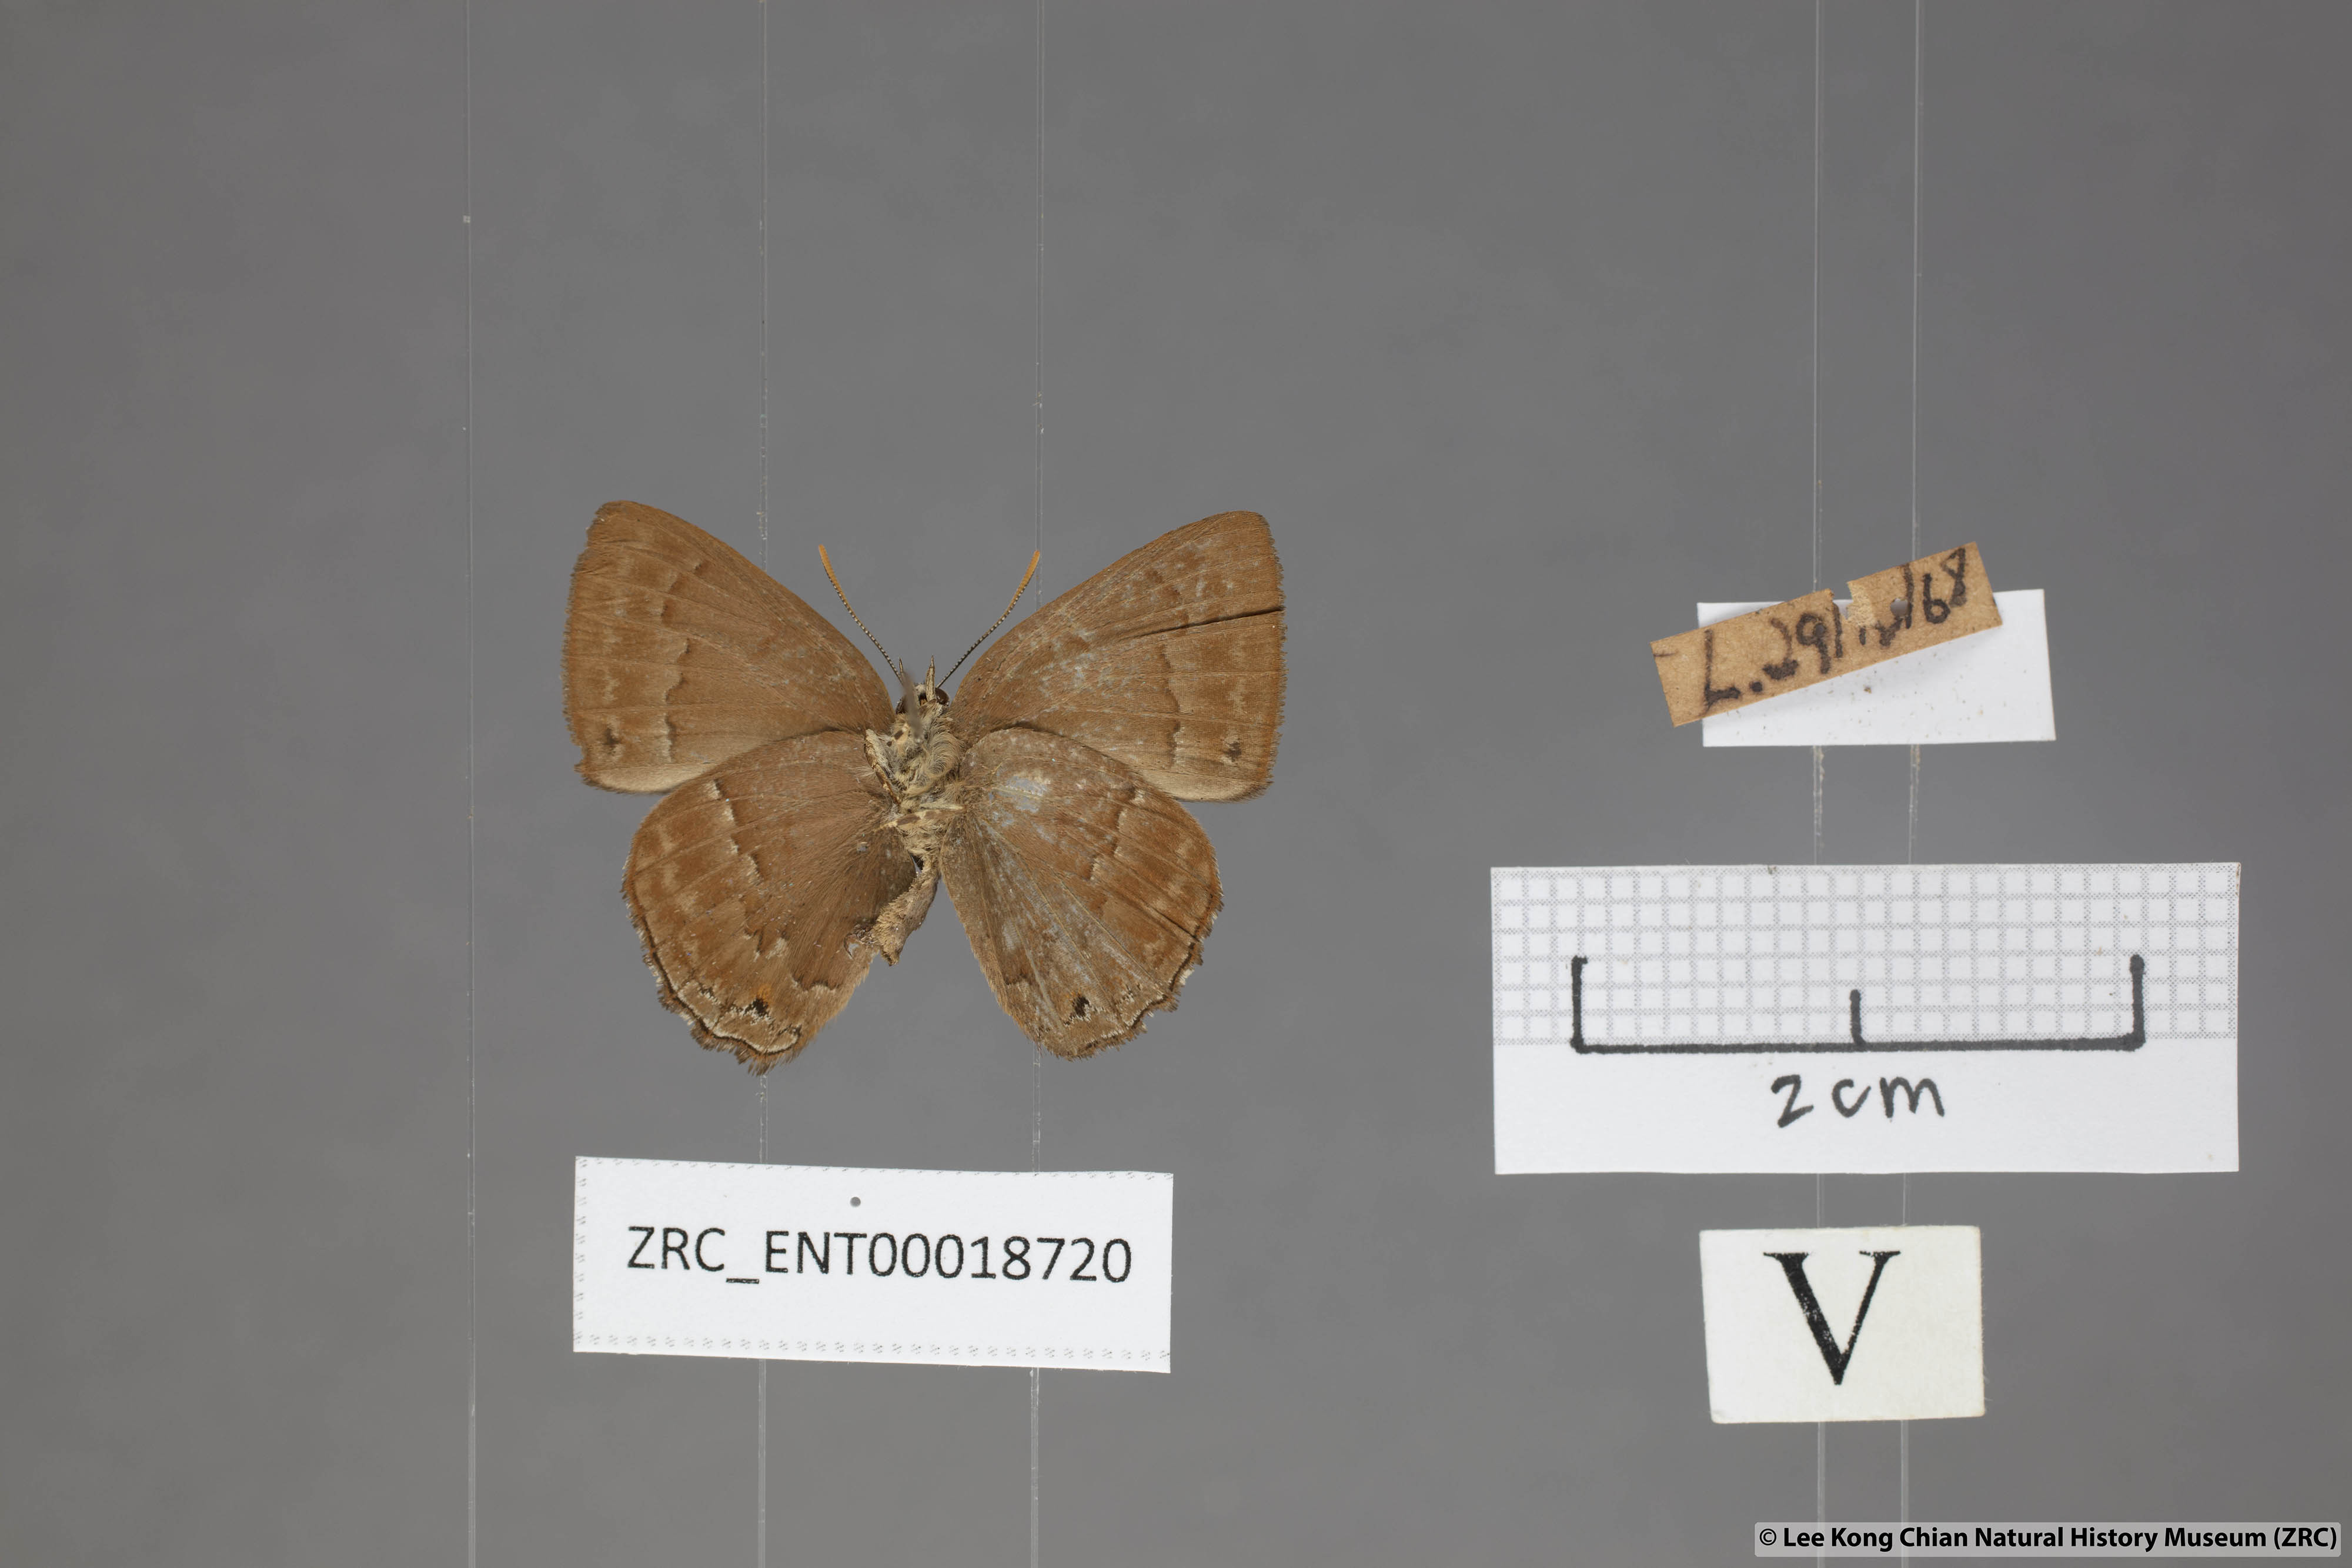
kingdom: Animalia
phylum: Arthropoda
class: Insecta
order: Lepidoptera
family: Lycaenidae
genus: Deramas
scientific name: Deramas livena
